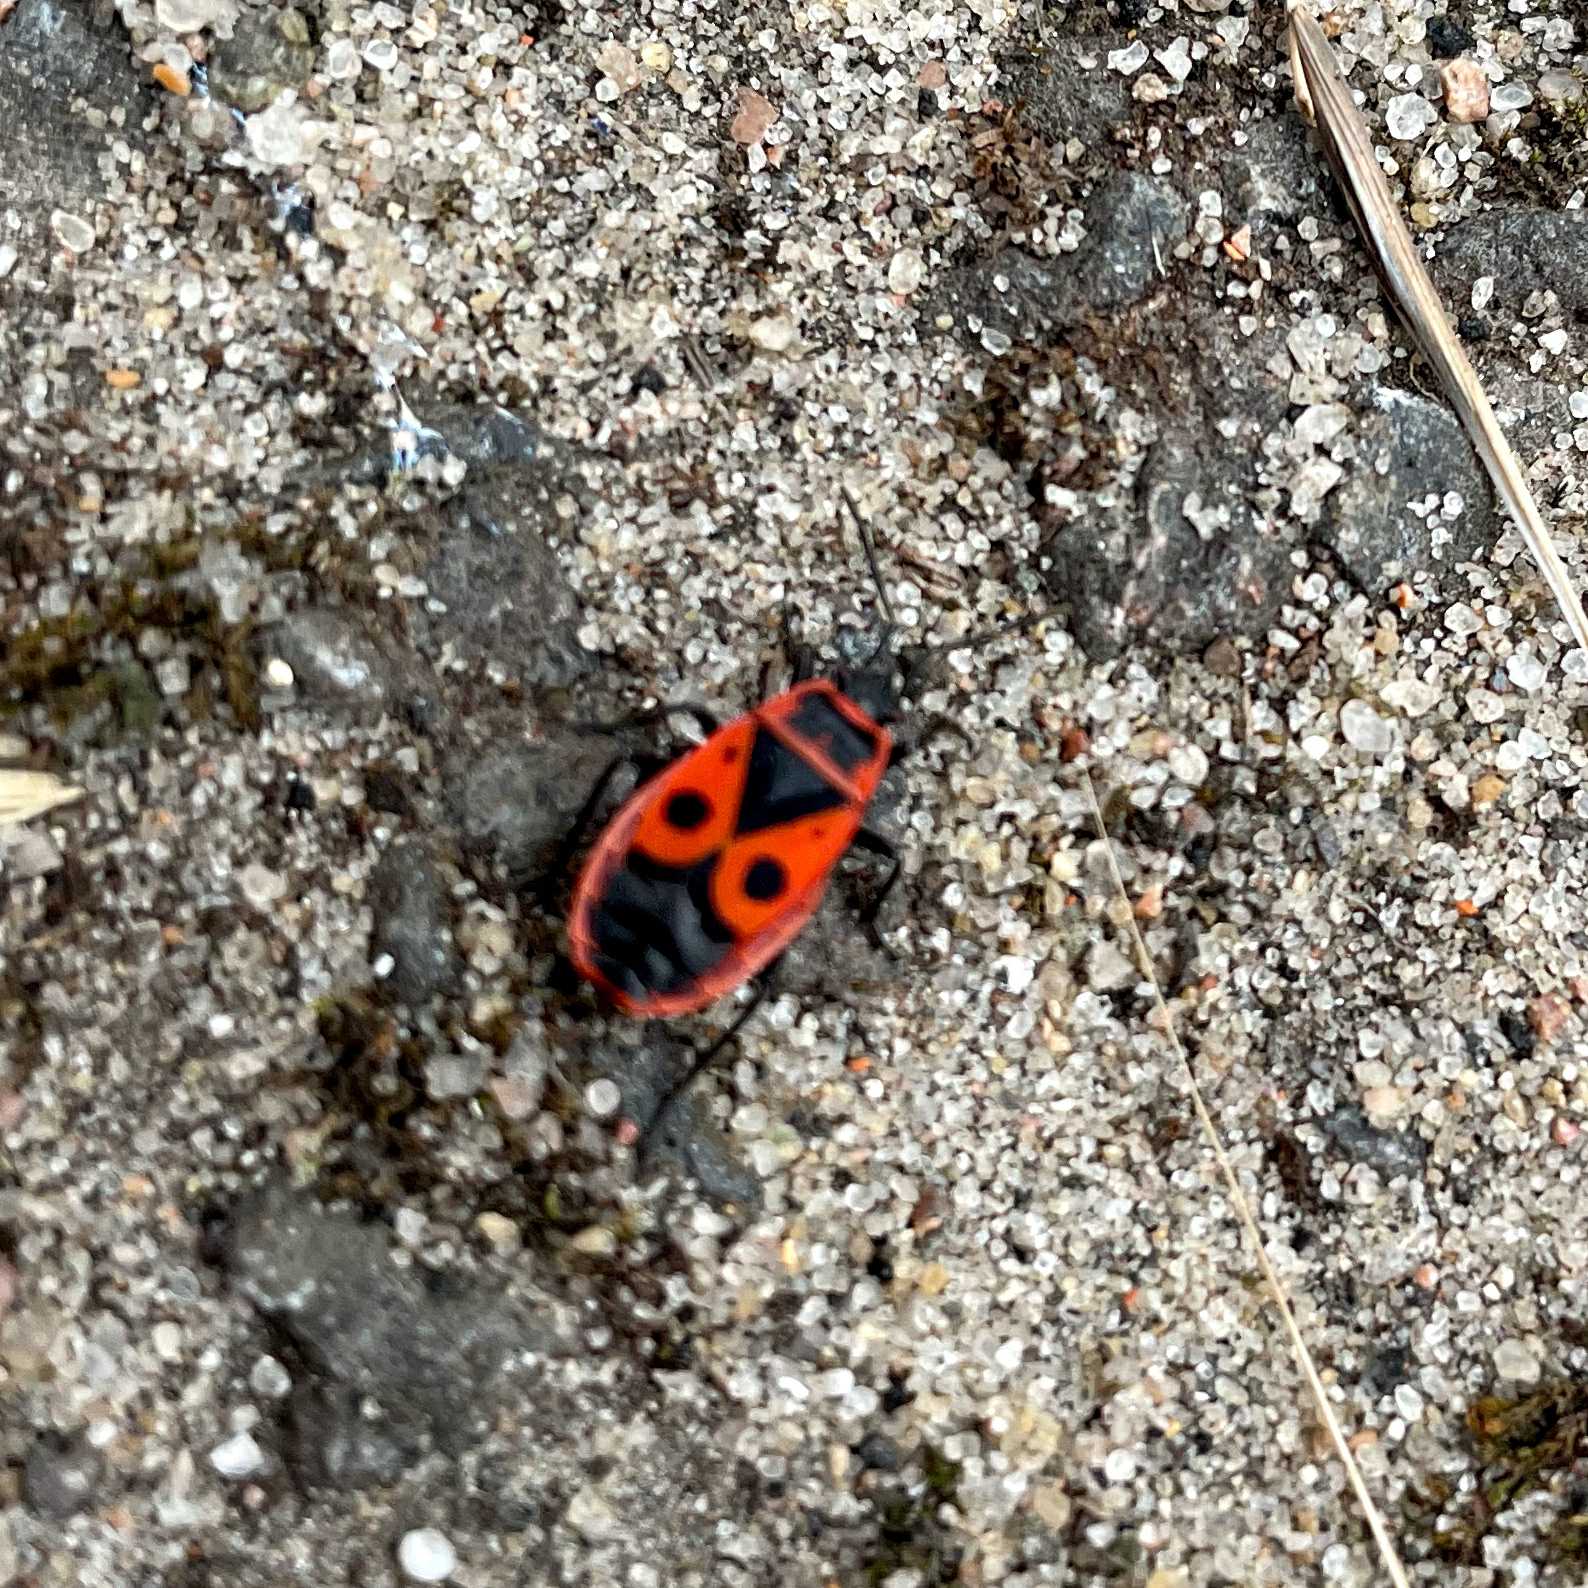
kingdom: Animalia
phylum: Arthropoda
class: Insecta
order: Hemiptera
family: Pyrrhocoridae
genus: Pyrrhocoris
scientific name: Pyrrhocoris apterus
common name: Ildtæge
